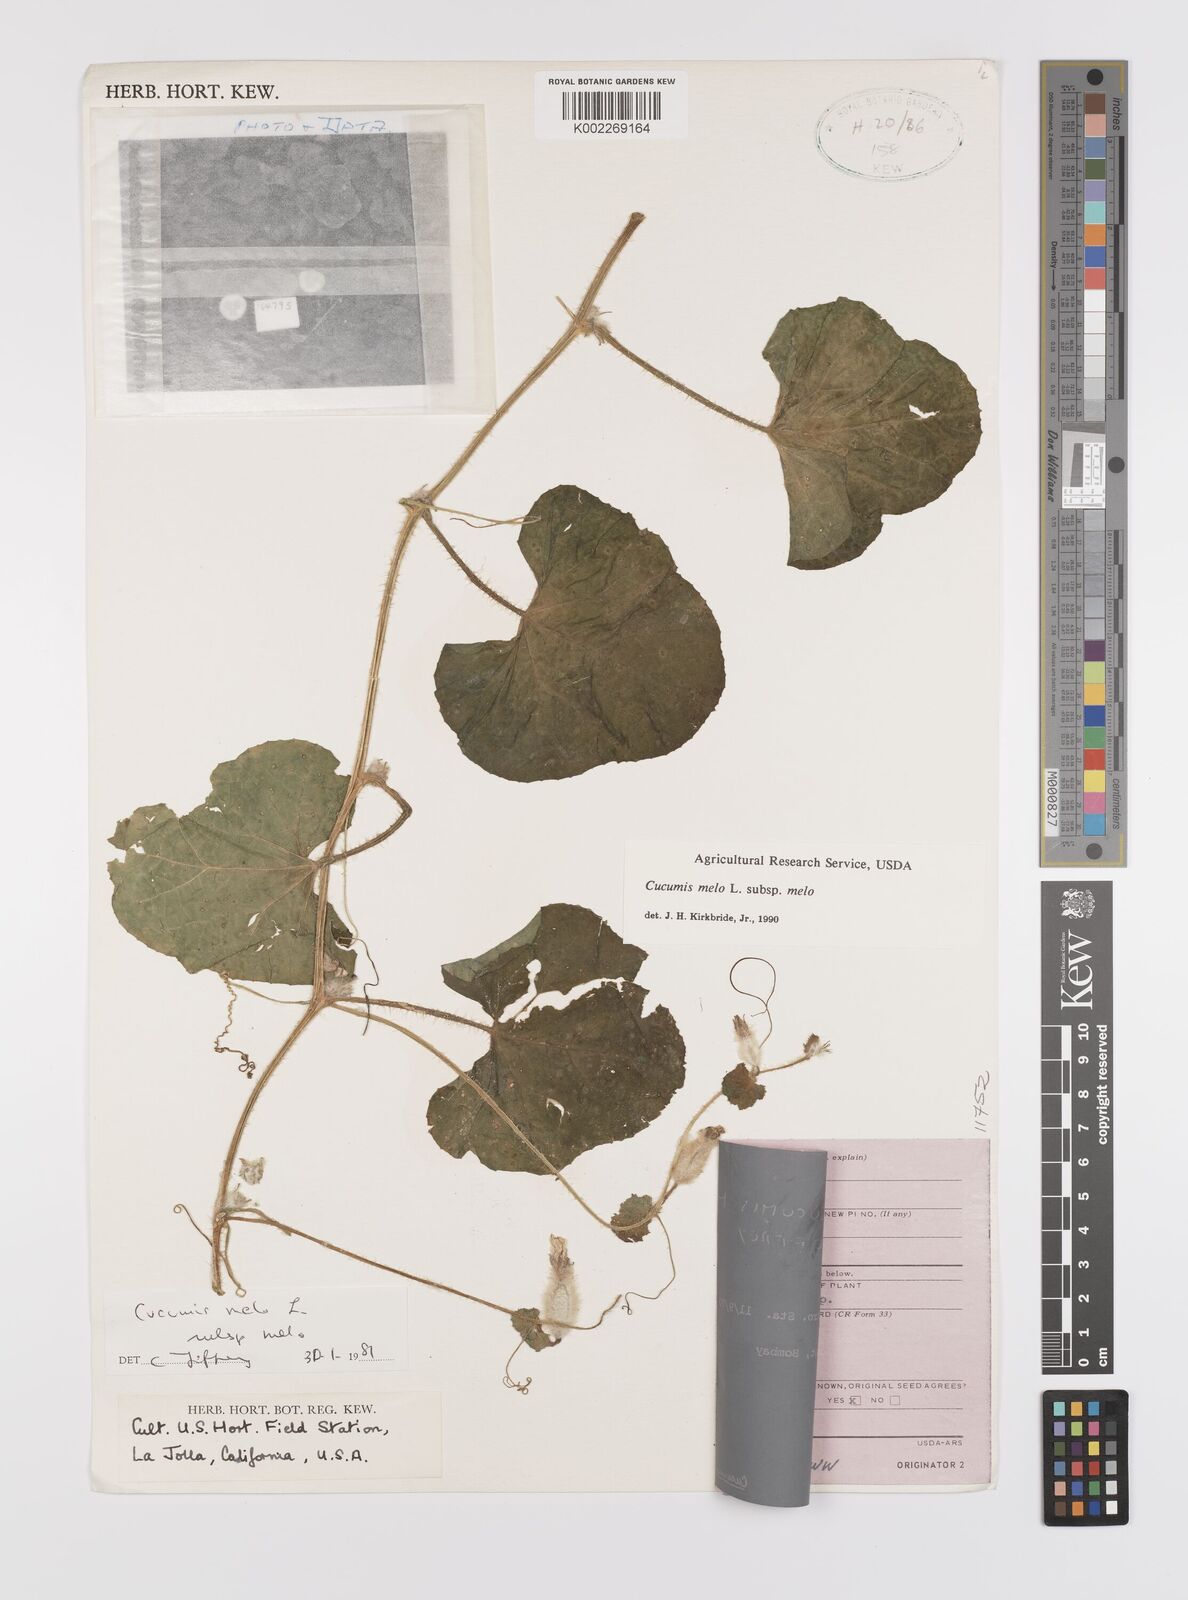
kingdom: Plantae
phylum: Tracheophyta
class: Magnoliopsida
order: Cucurbitales
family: Cucurbitaceae
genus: Cucumis
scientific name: Cucumis melo
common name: Melon
